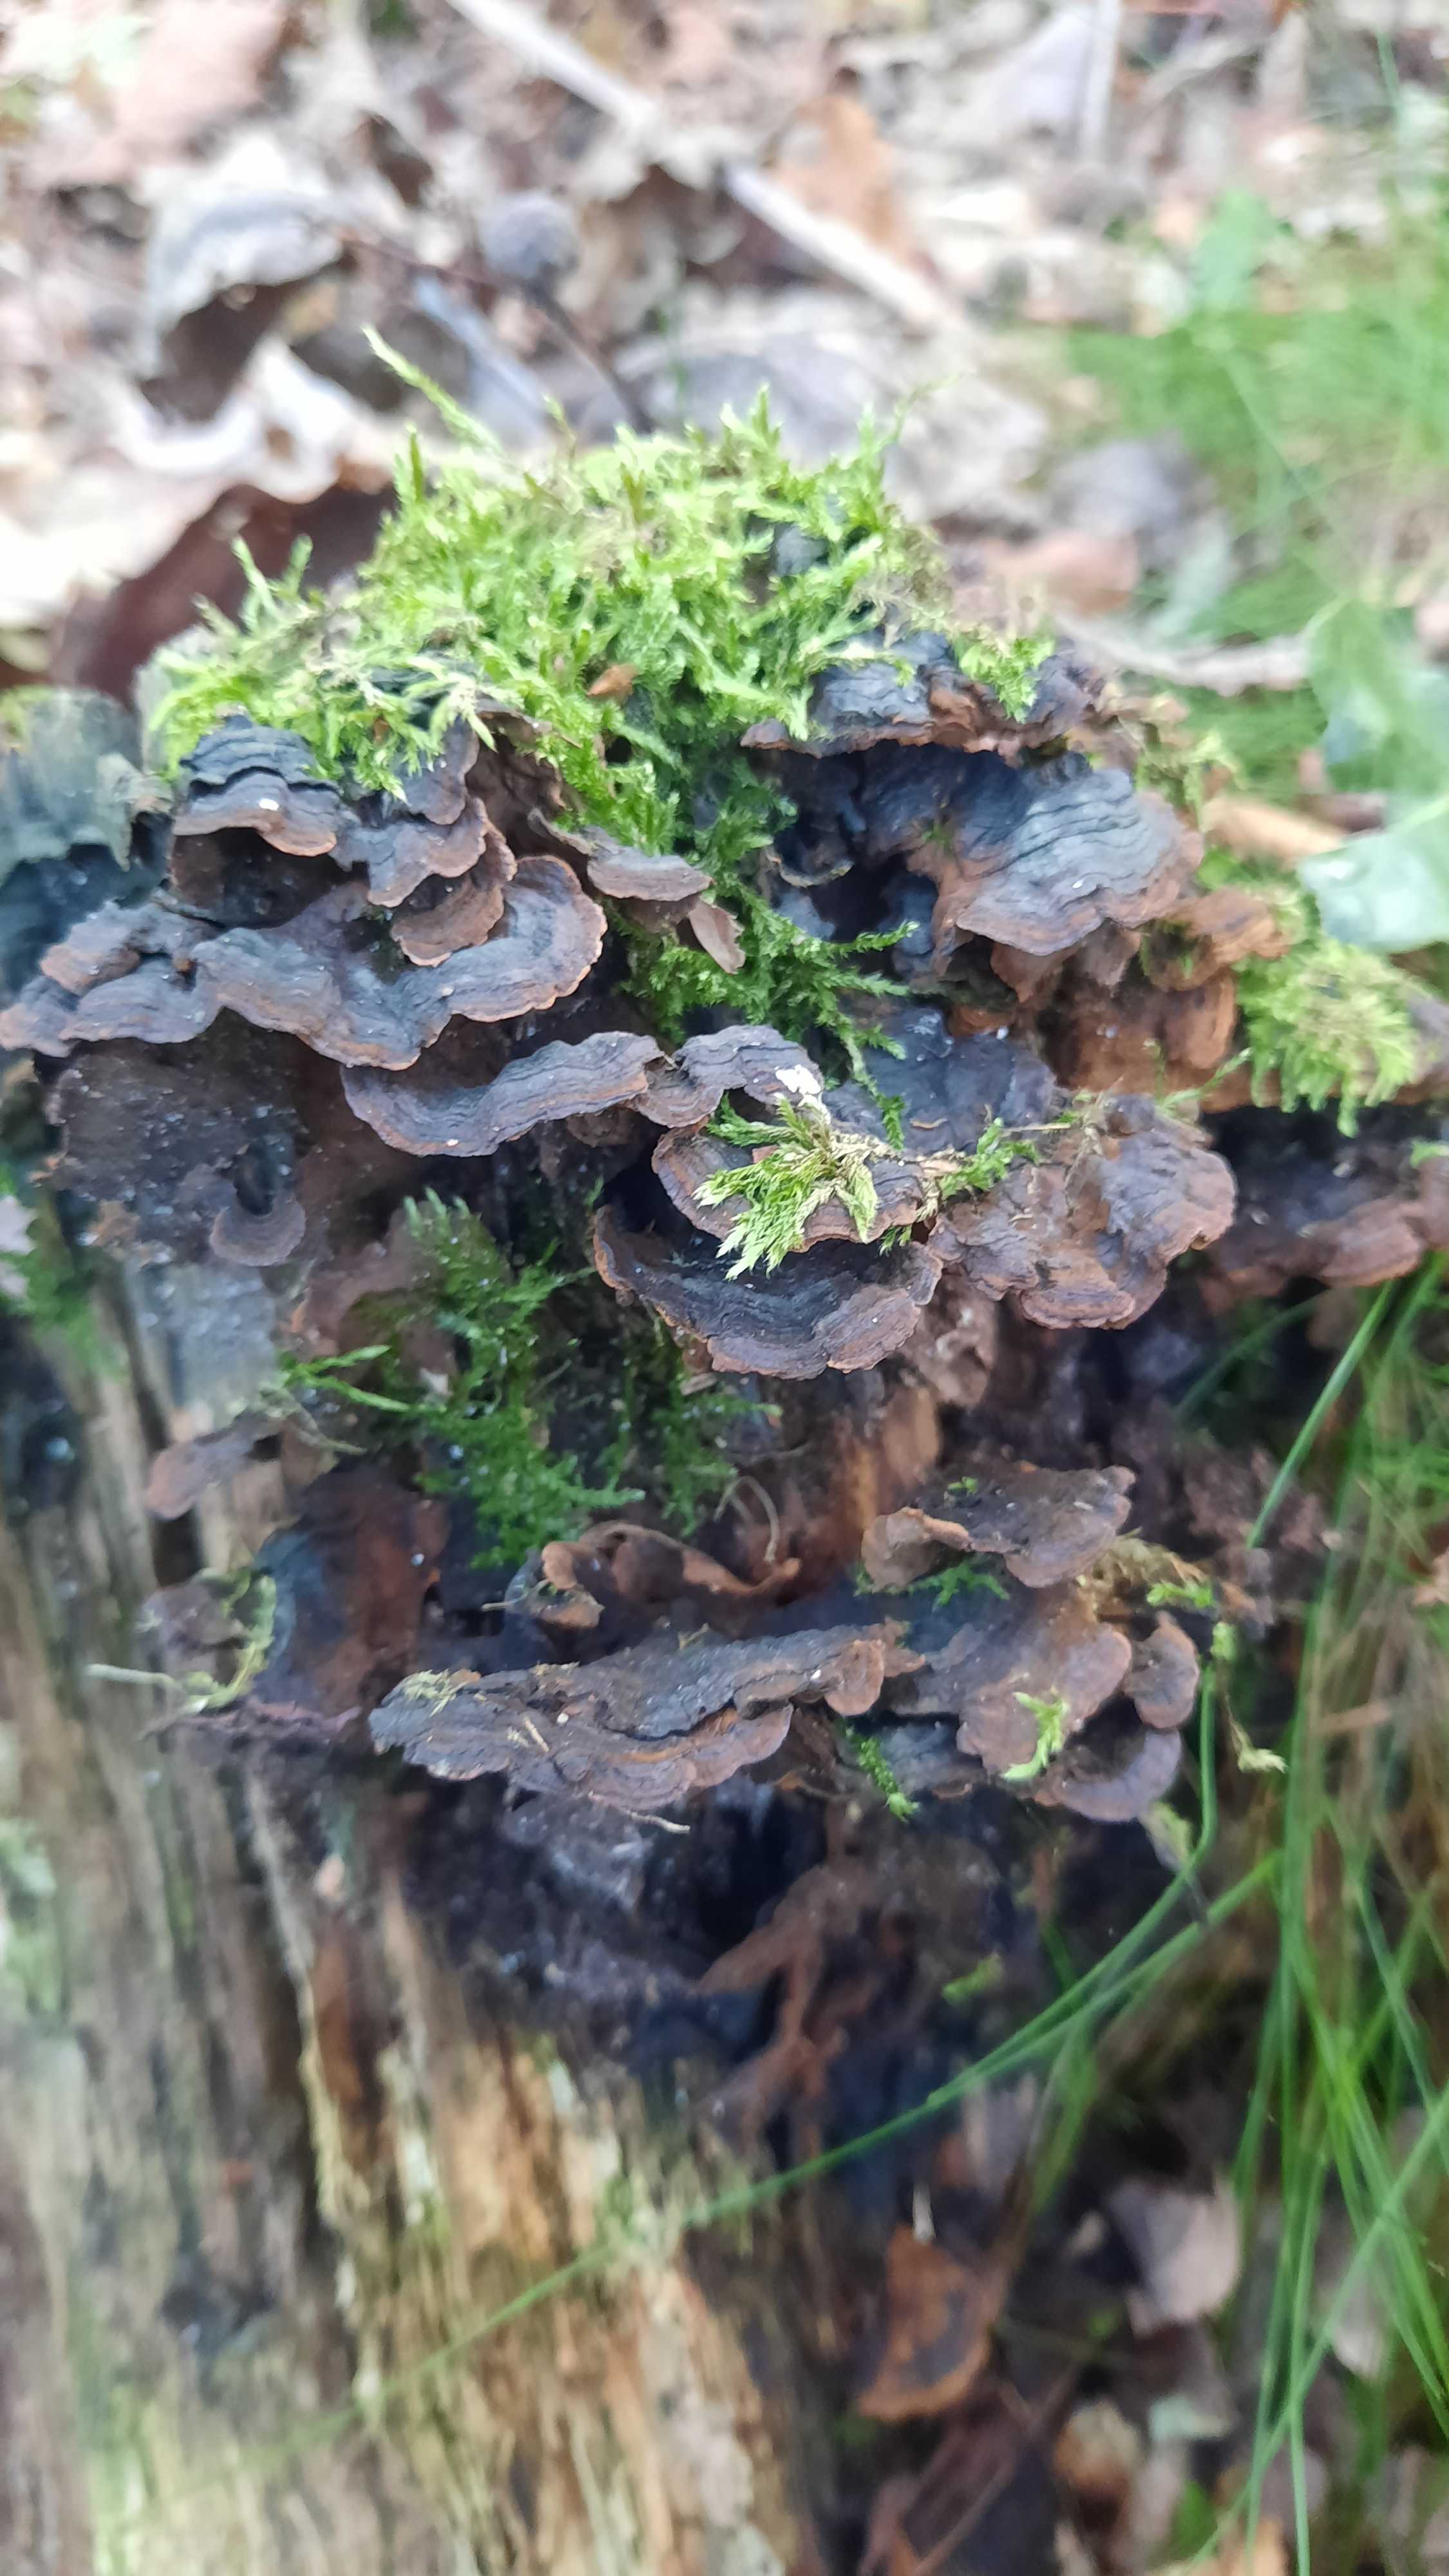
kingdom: Fungi
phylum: Basidiomycota
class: Agaricomycetes
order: Hymenochaetales
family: Hymenochaetaceae
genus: Hymenochaete
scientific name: Hymenochaete rubiginosa
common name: stiv ruslædersvamp
